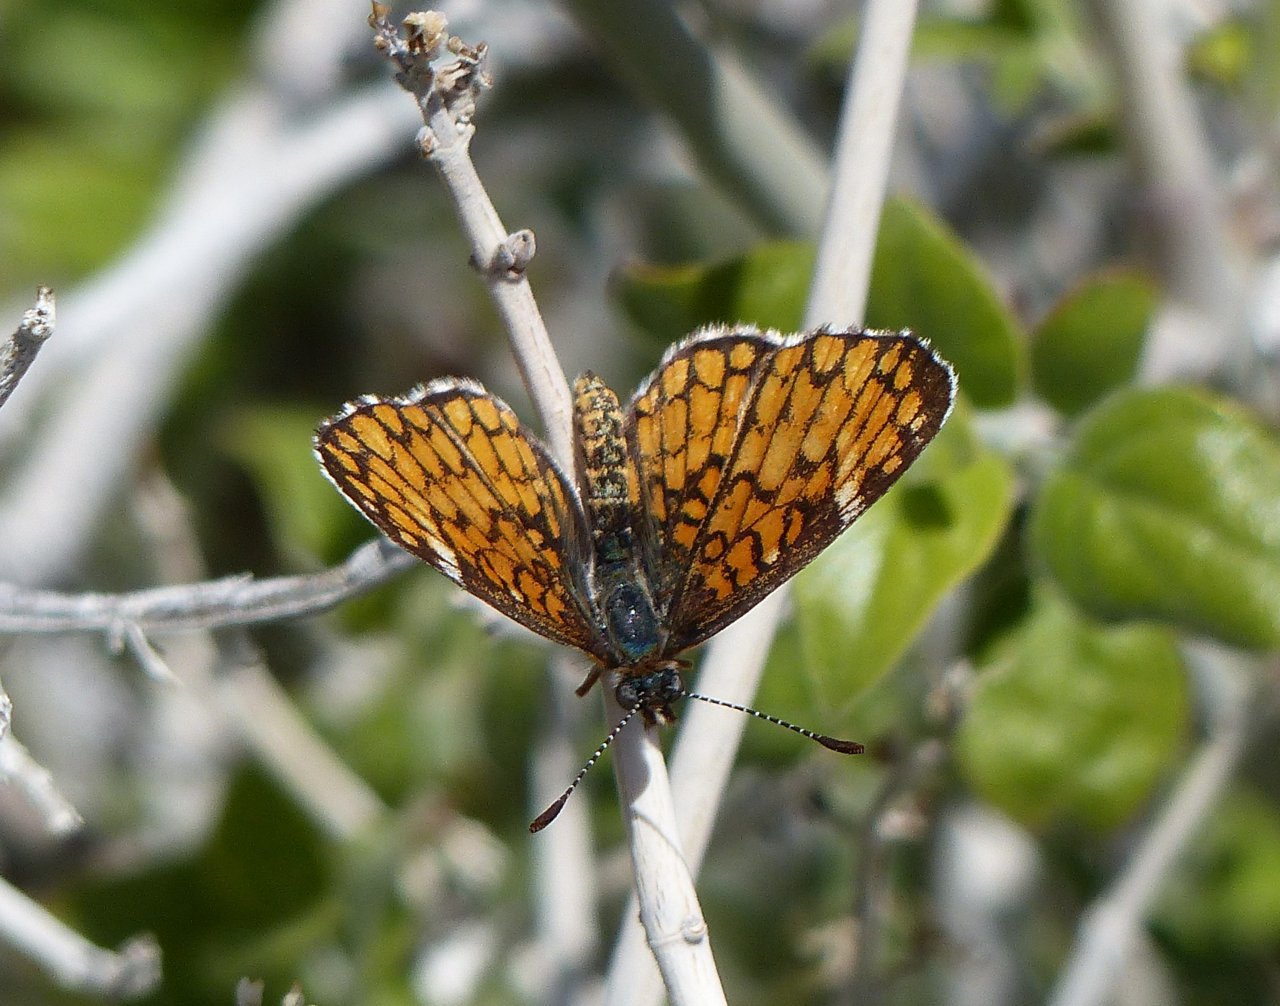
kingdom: Animalia
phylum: Arthropoda
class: Insecta
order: Lepidoptera
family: Nymphalidae
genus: Dymasia
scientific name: Dymasia dymas
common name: Tiny Checkerspot
